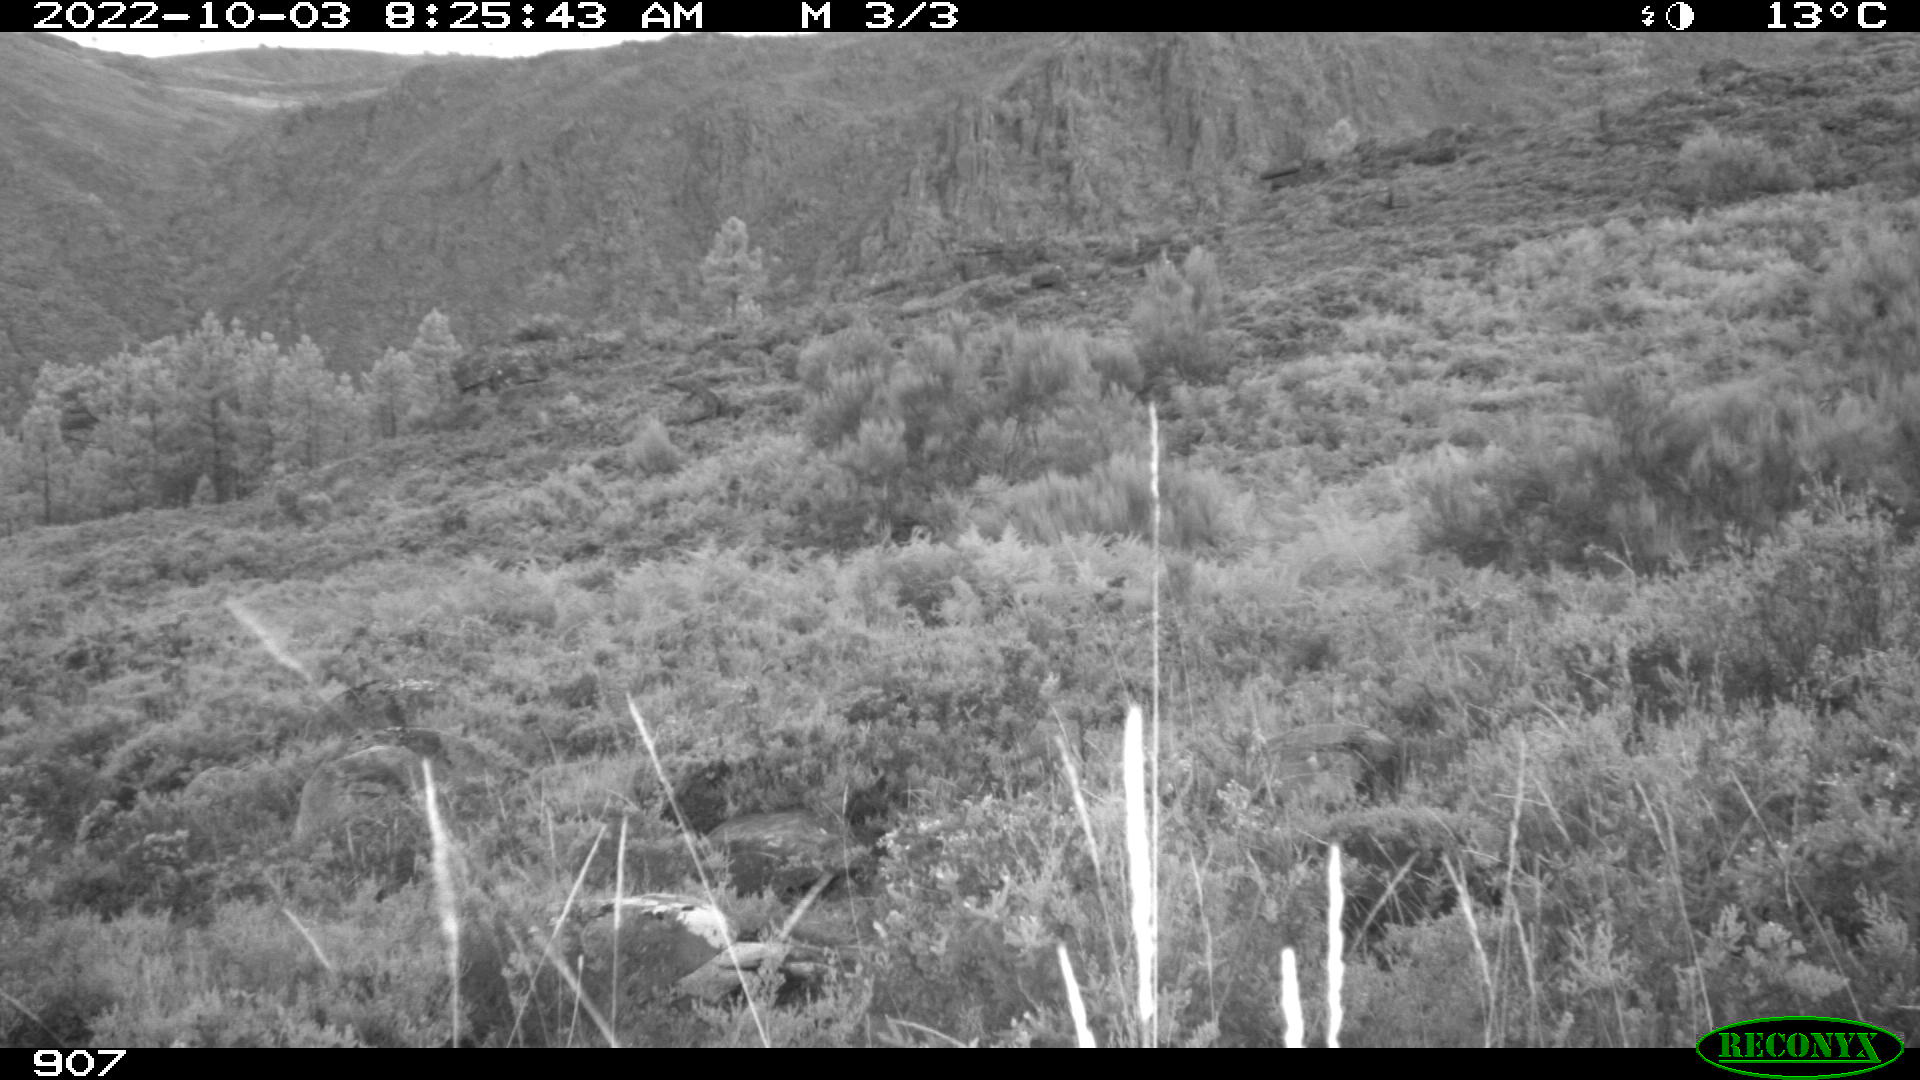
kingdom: Animalia
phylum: Chordata
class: Mammalia
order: Artiodactyla
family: Bovidae
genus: Bos
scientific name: Bos taurus
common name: Domesticated cattle
